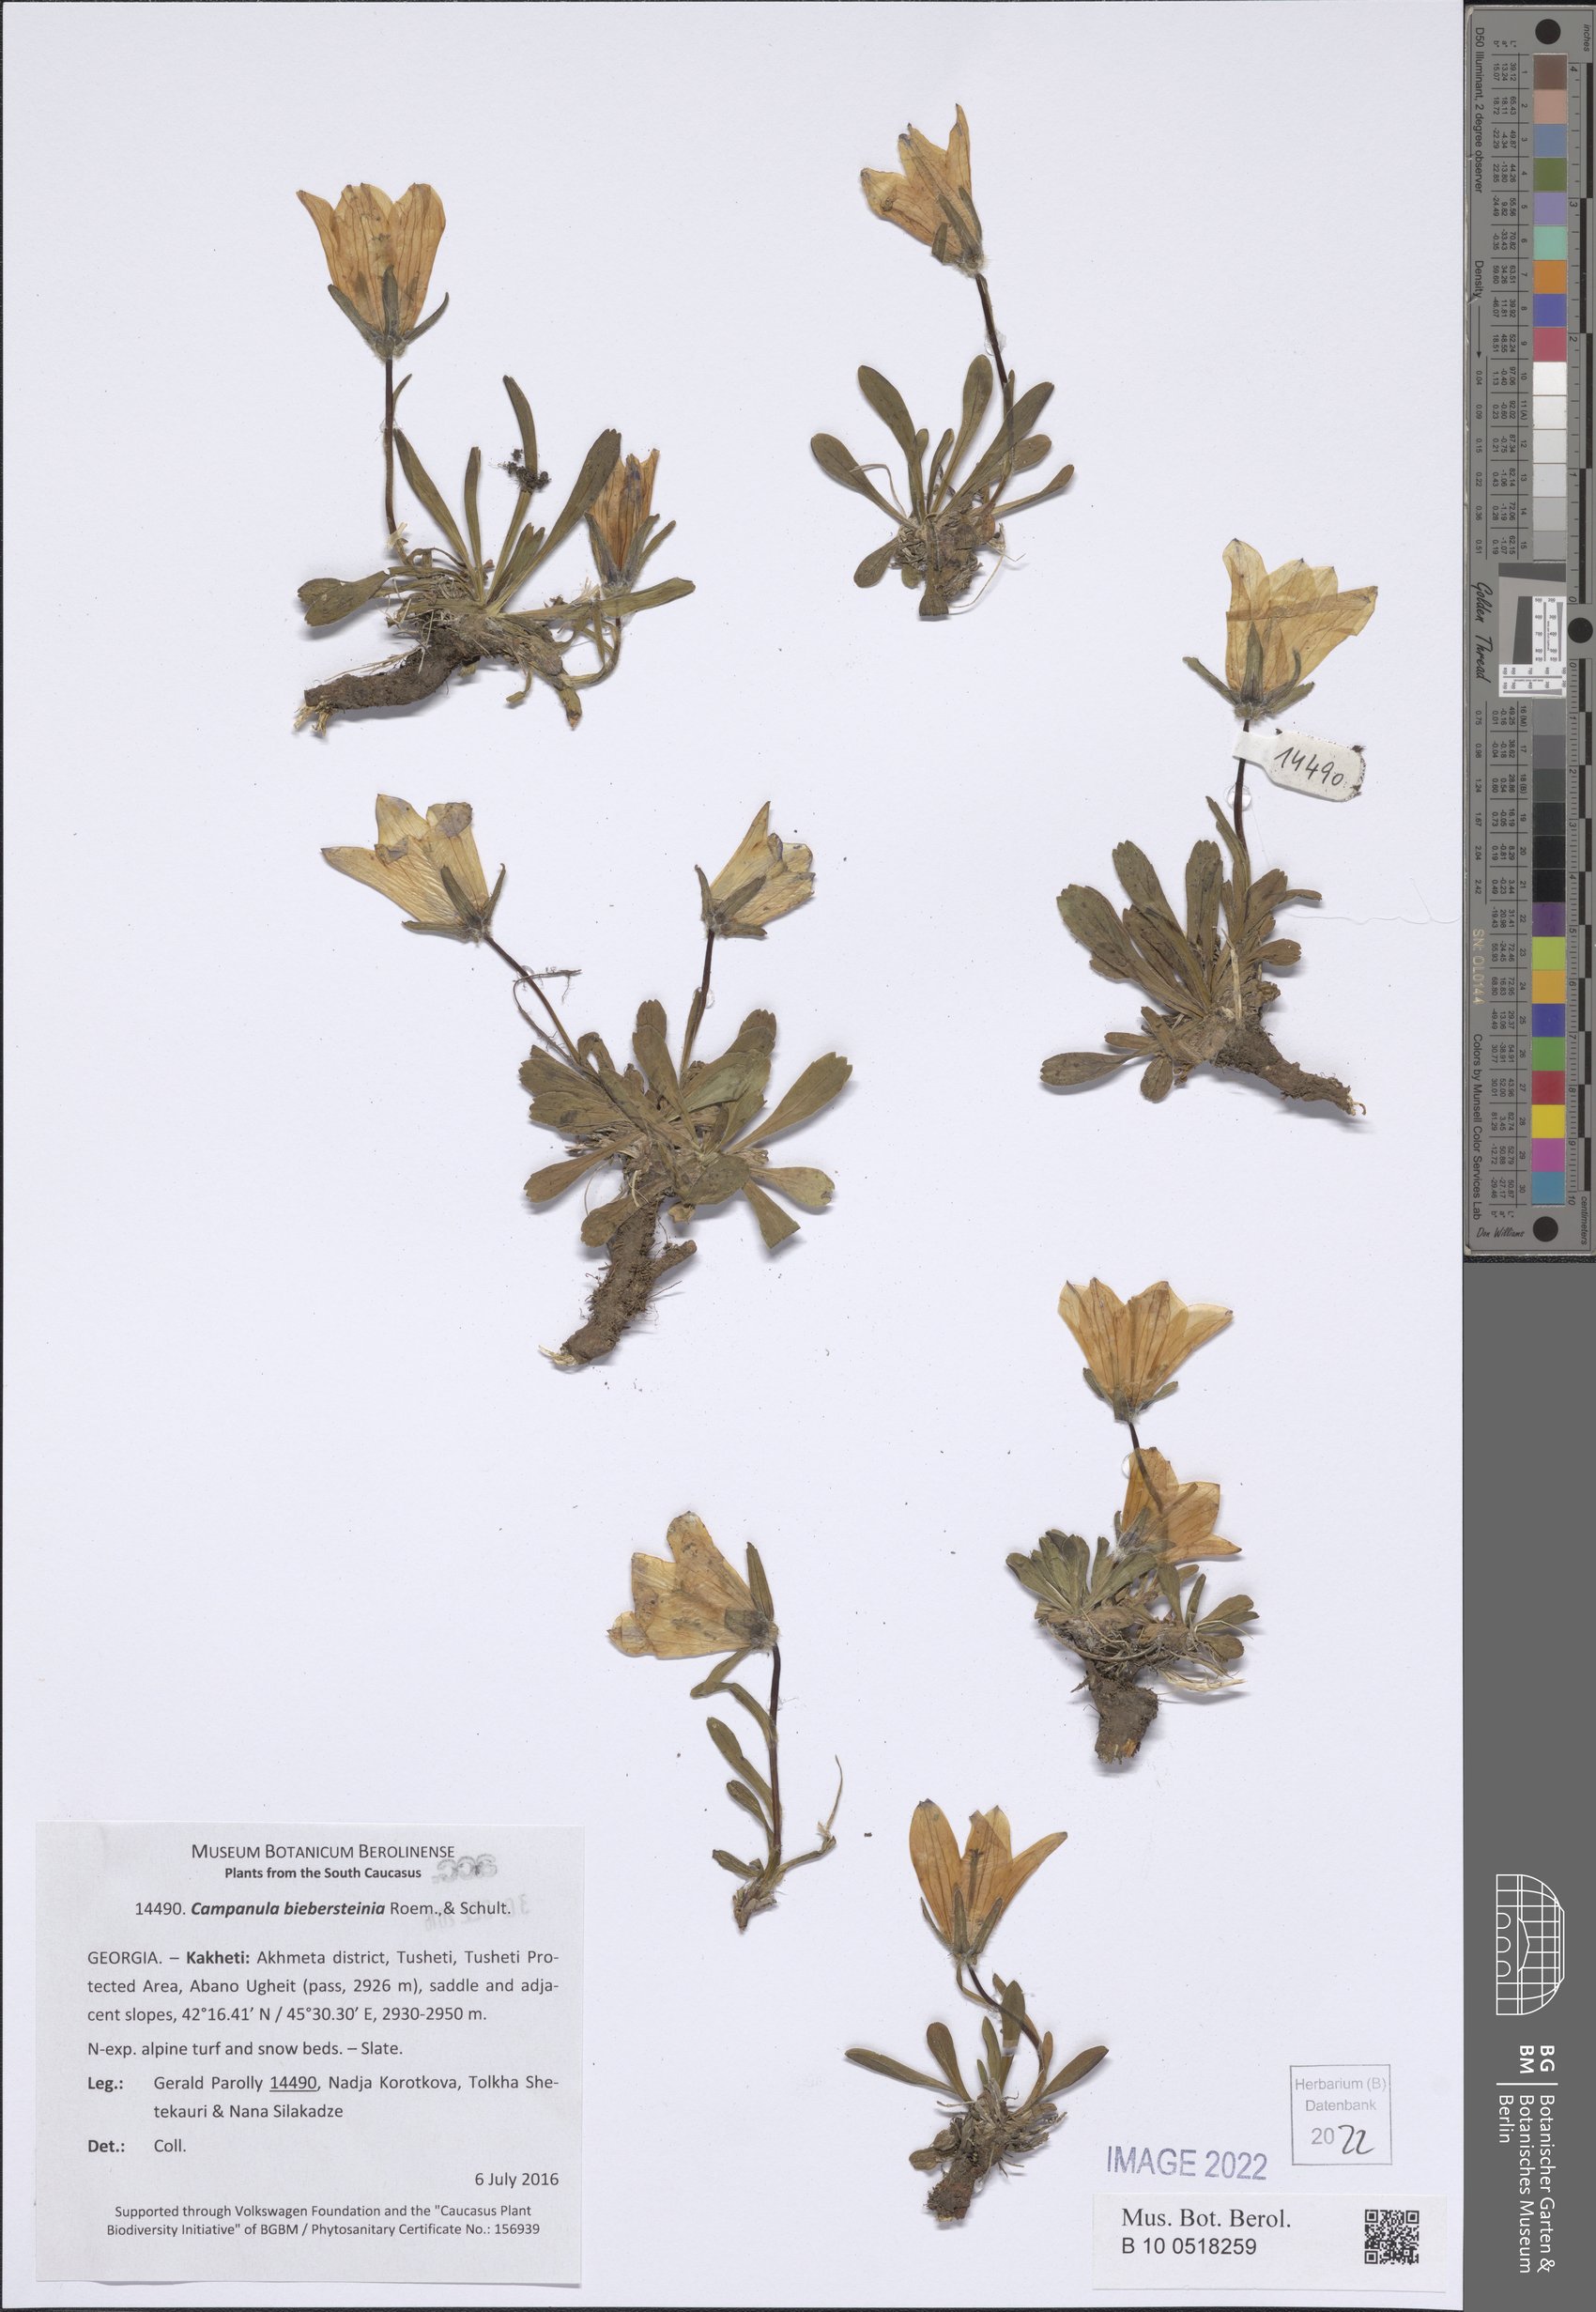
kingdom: Plantae
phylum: Tracheophyta
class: Magnoliopsida
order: Asterales
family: Campanulaceae
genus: Campanula
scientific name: Campanula tridentata
